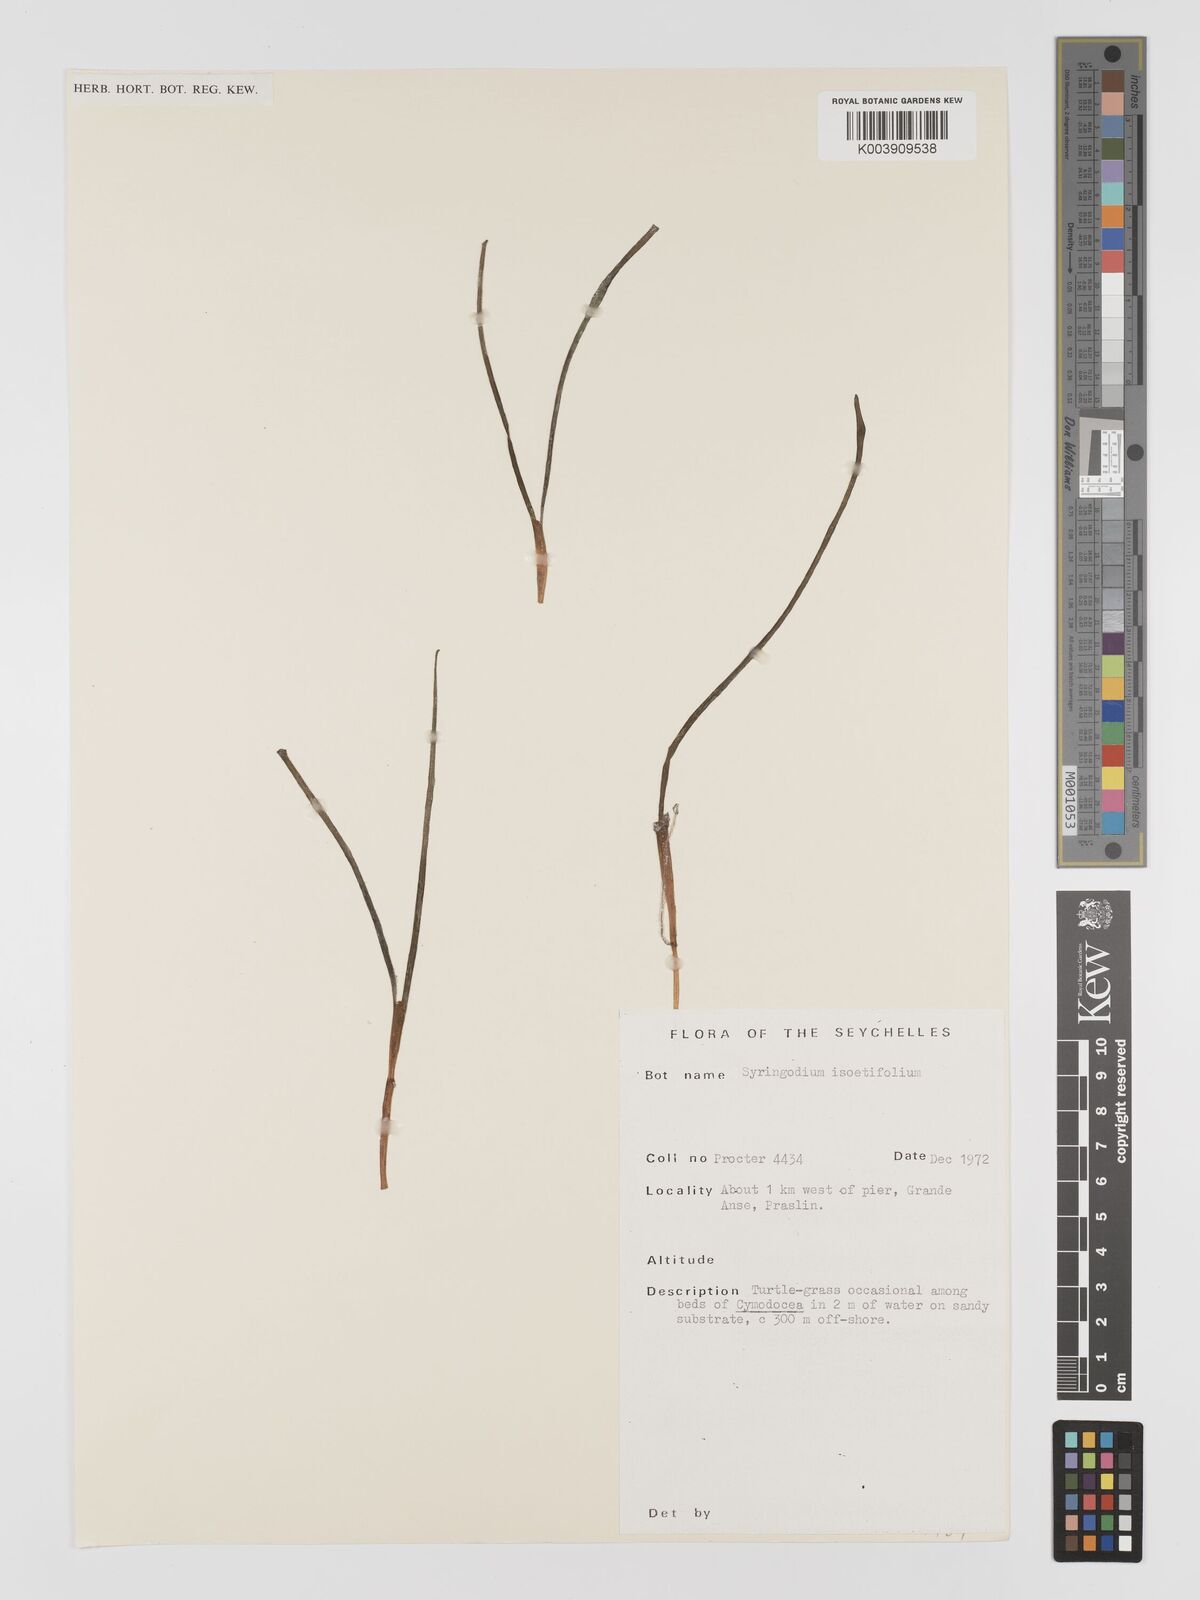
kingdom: Plantae
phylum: Tracheophyta
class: Liliopsida
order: Alismatales
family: Cymodoceaceae
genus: Syringodium
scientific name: Syringodium isoetifolium
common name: Species code: si
